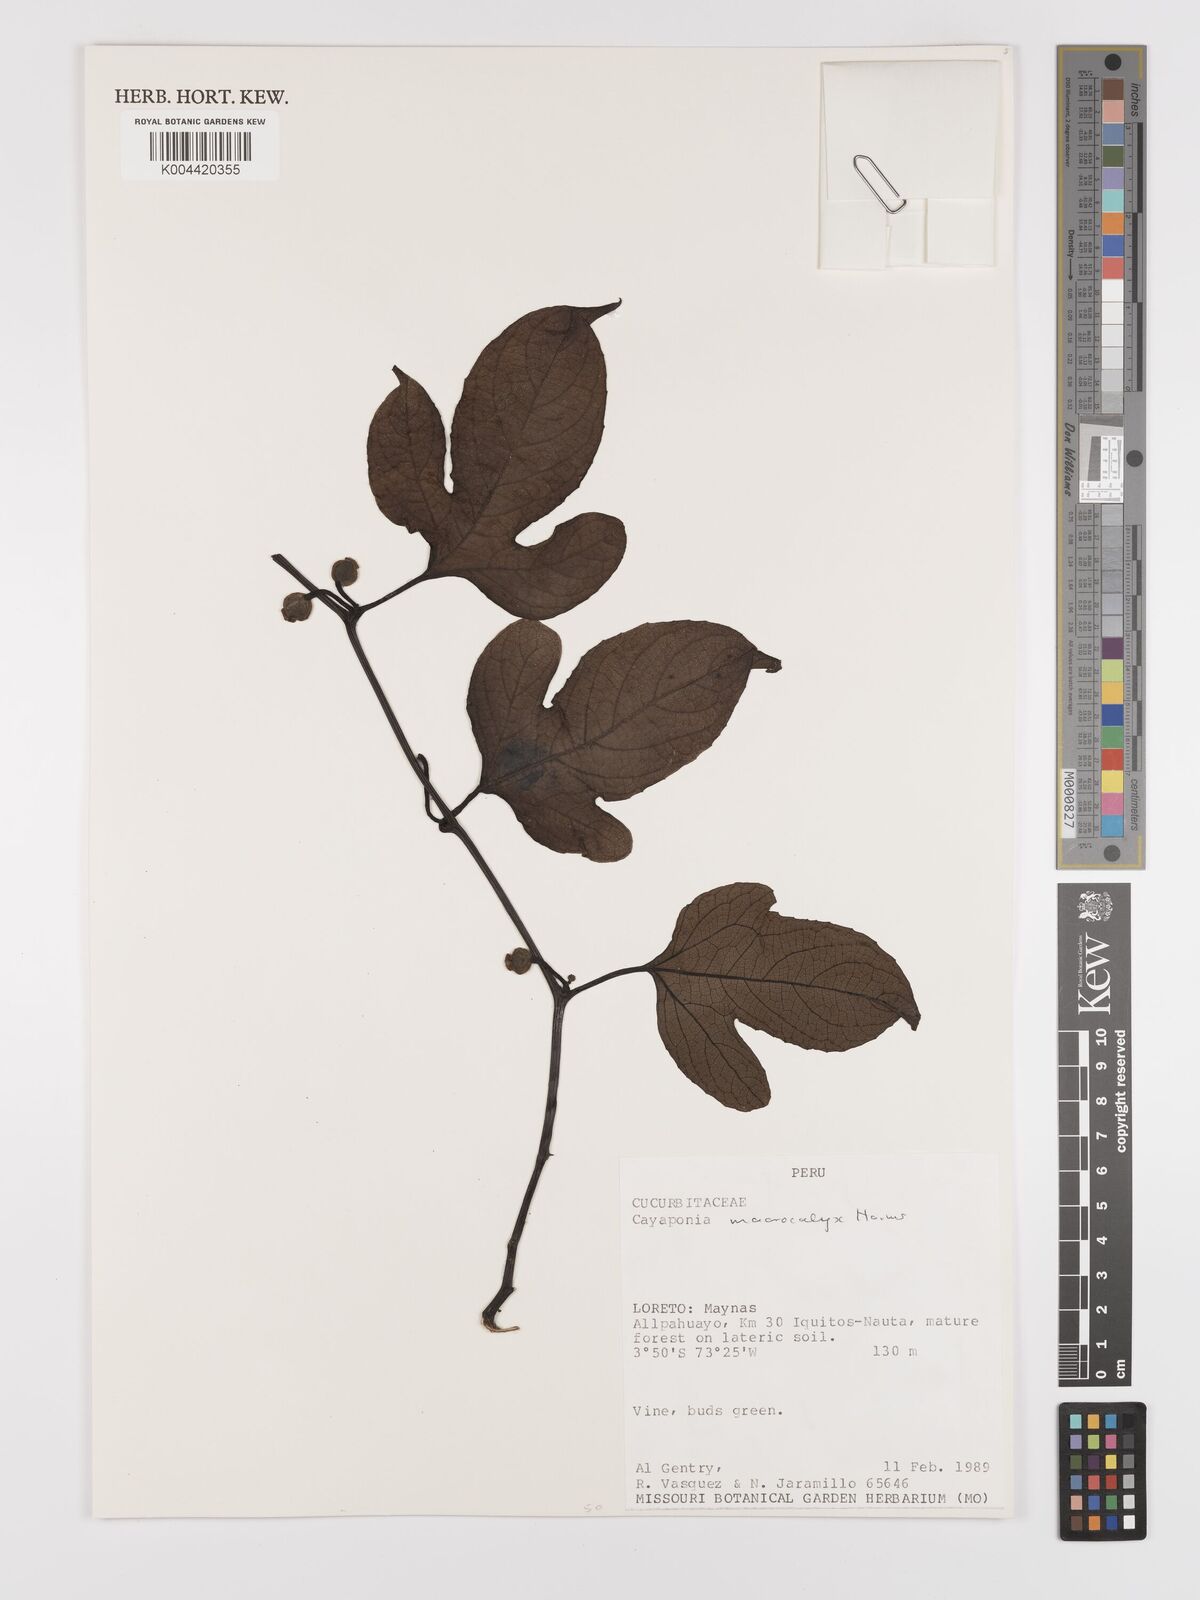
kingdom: Plantae
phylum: Tracheophyta
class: Magnoliopsida
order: Cucurbitales
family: Cucurbitaceae
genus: Cayaponia
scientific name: Cayaponia macrocalyx
